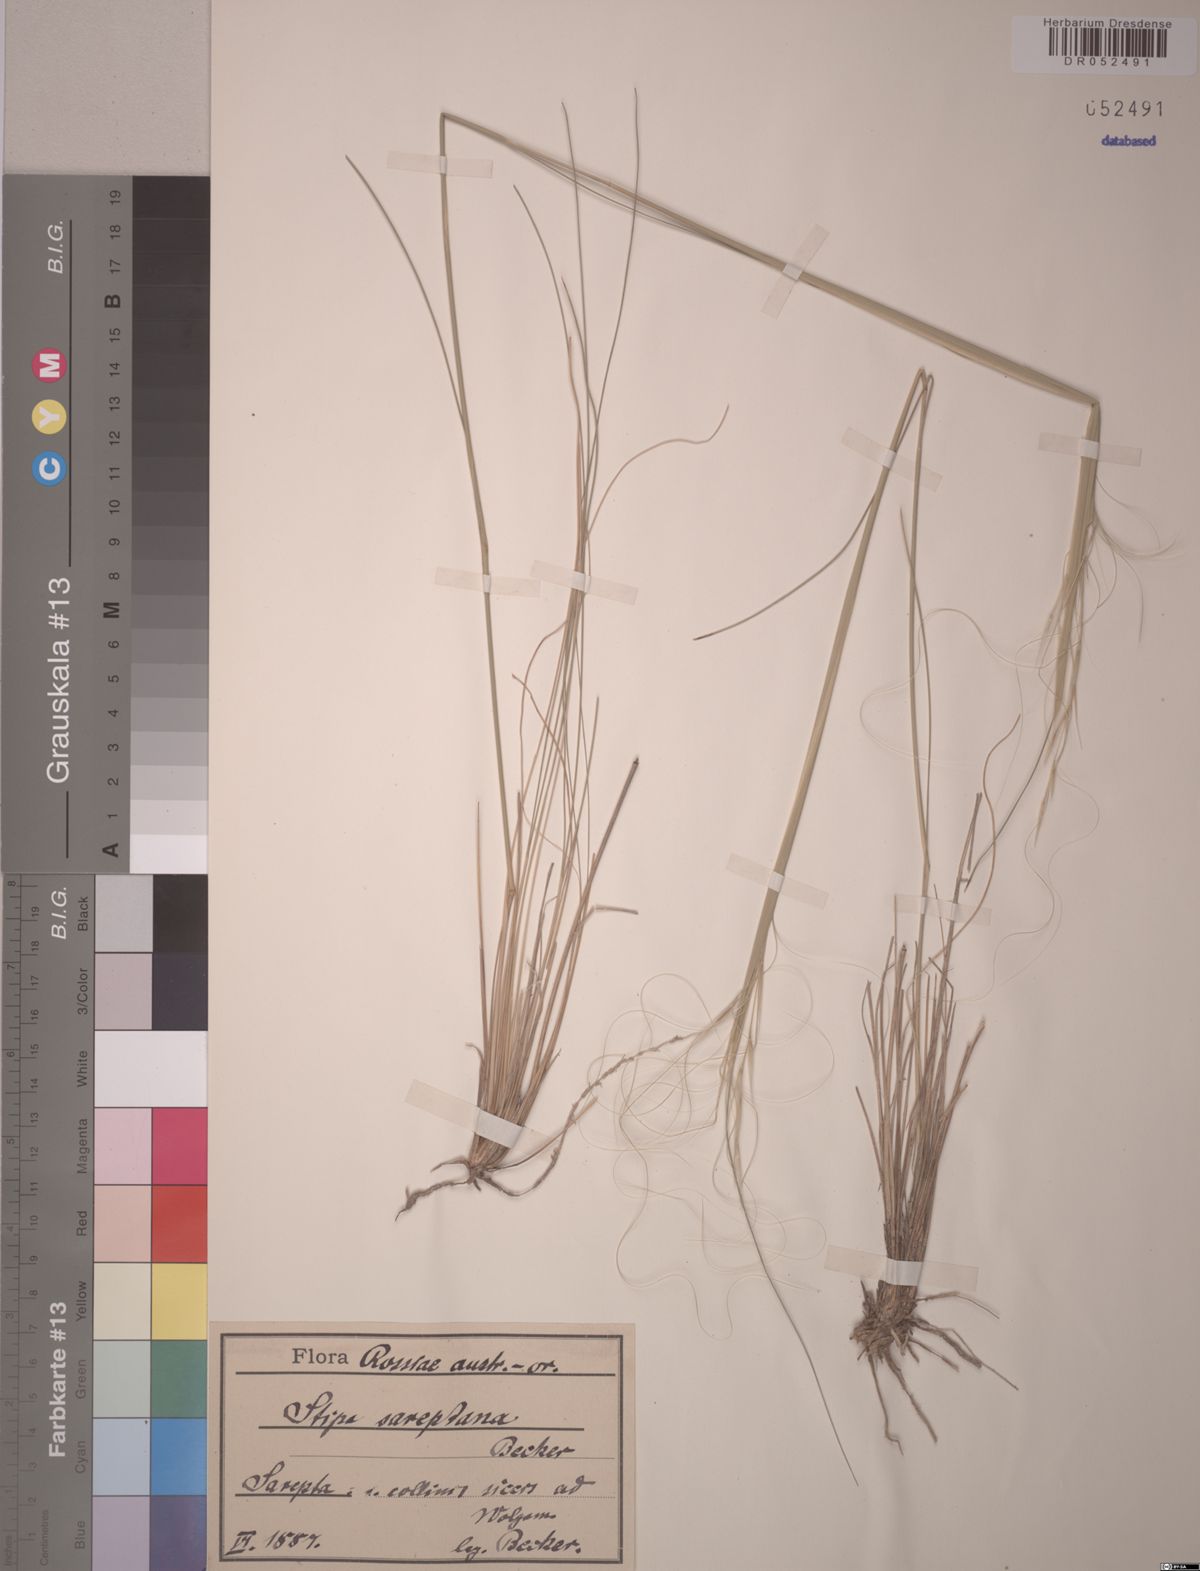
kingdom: Plantae
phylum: Tracheophyta
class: Liliopsida
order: Poales
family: Poaceae
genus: Stipa
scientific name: Stipa sareptana
